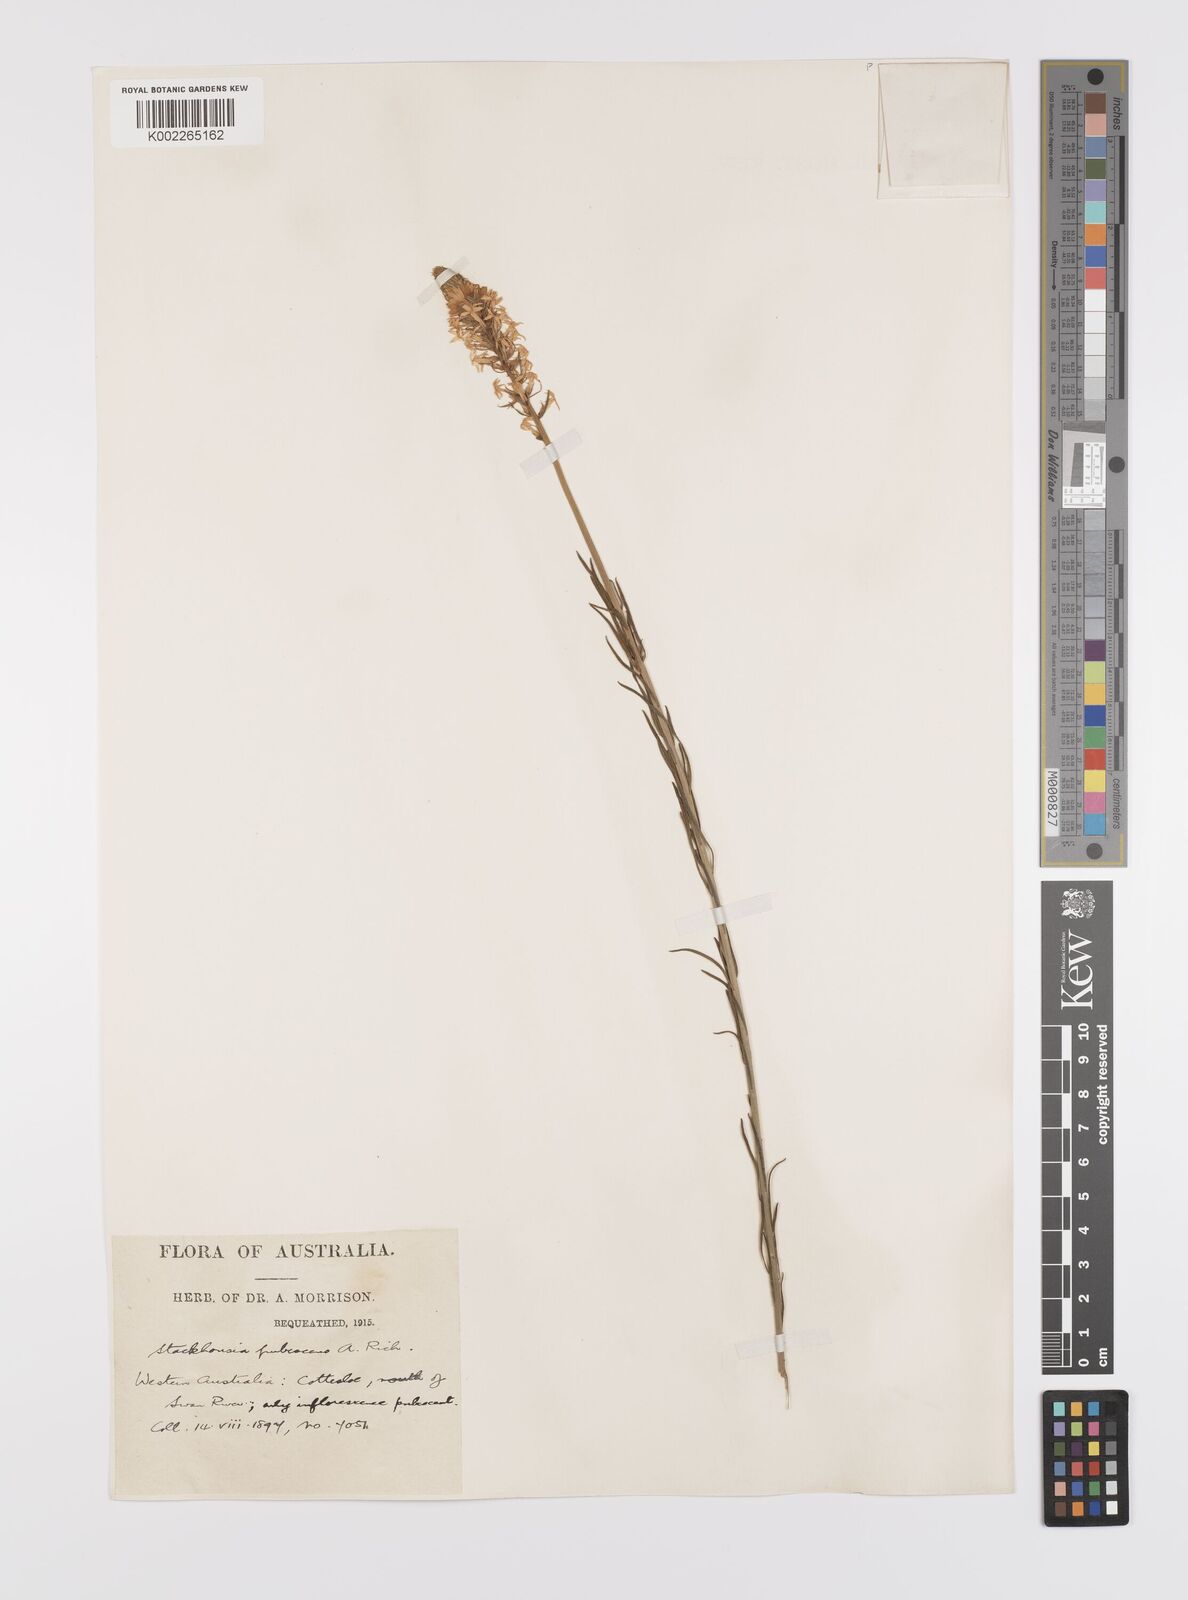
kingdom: Plantae
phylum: Tracheophyta
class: Magnoliopsida
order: Celastrales
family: Celastraceae
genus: Stackhousia
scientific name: Stackhousia monogyna
